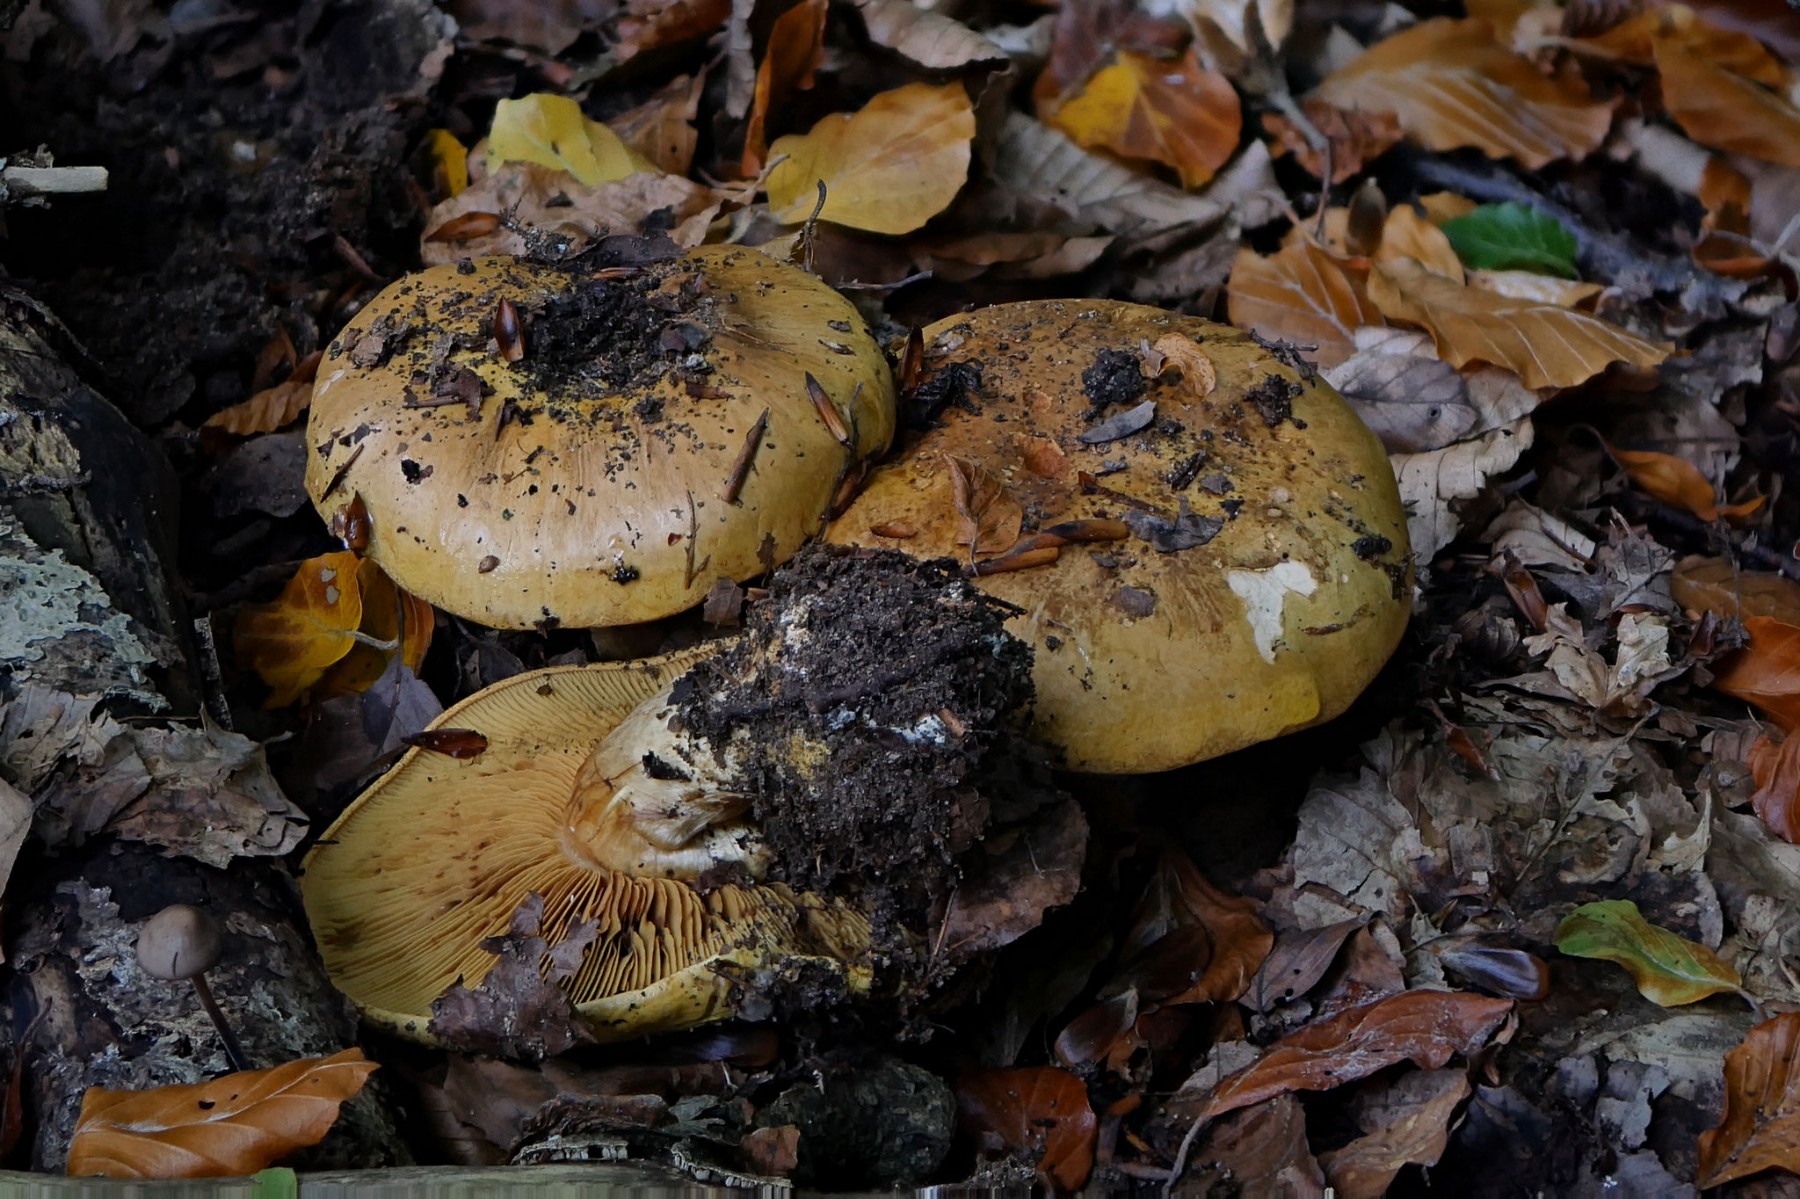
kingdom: Fungi
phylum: Basidiomycota
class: Agaricomycetes
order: Agaricales
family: Cortinariaceae
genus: Calonarius
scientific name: Calonarius alcalinophilus
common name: gyldenbrun slørhat
